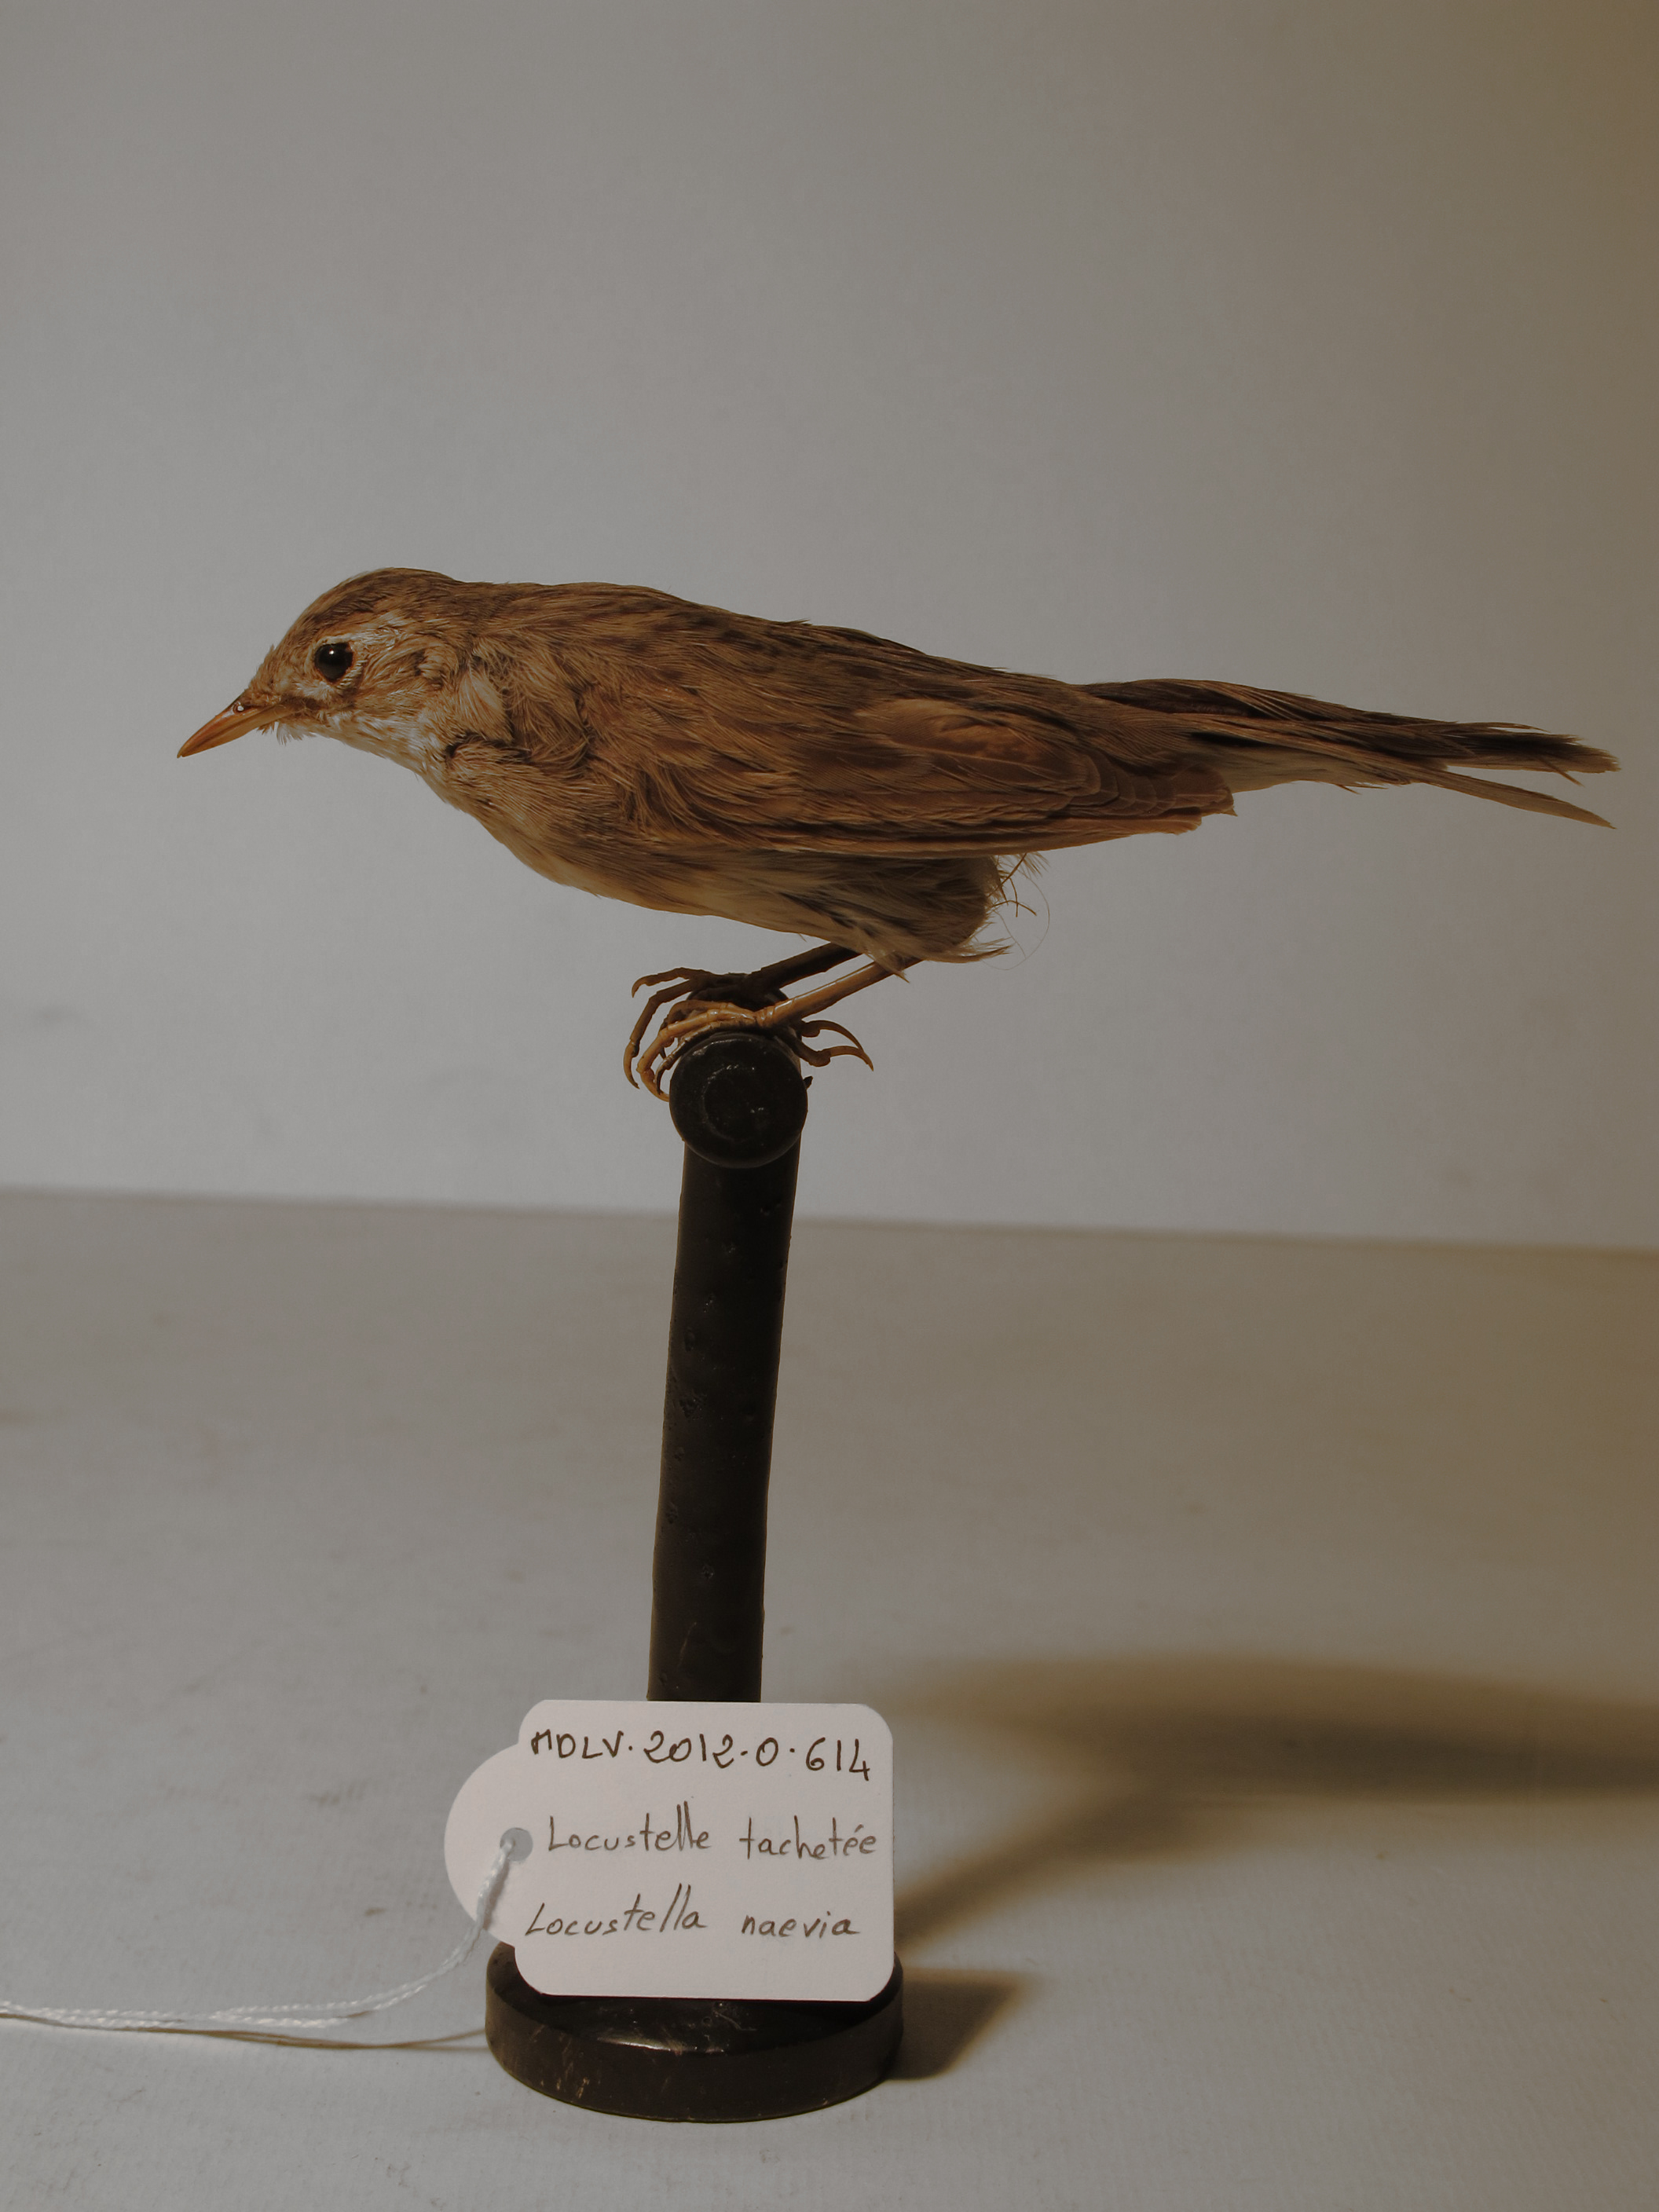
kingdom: Animalia
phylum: Chordata
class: Aves
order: Passeriformes
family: Locustellidae
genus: Locustella
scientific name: Locustella naevia
